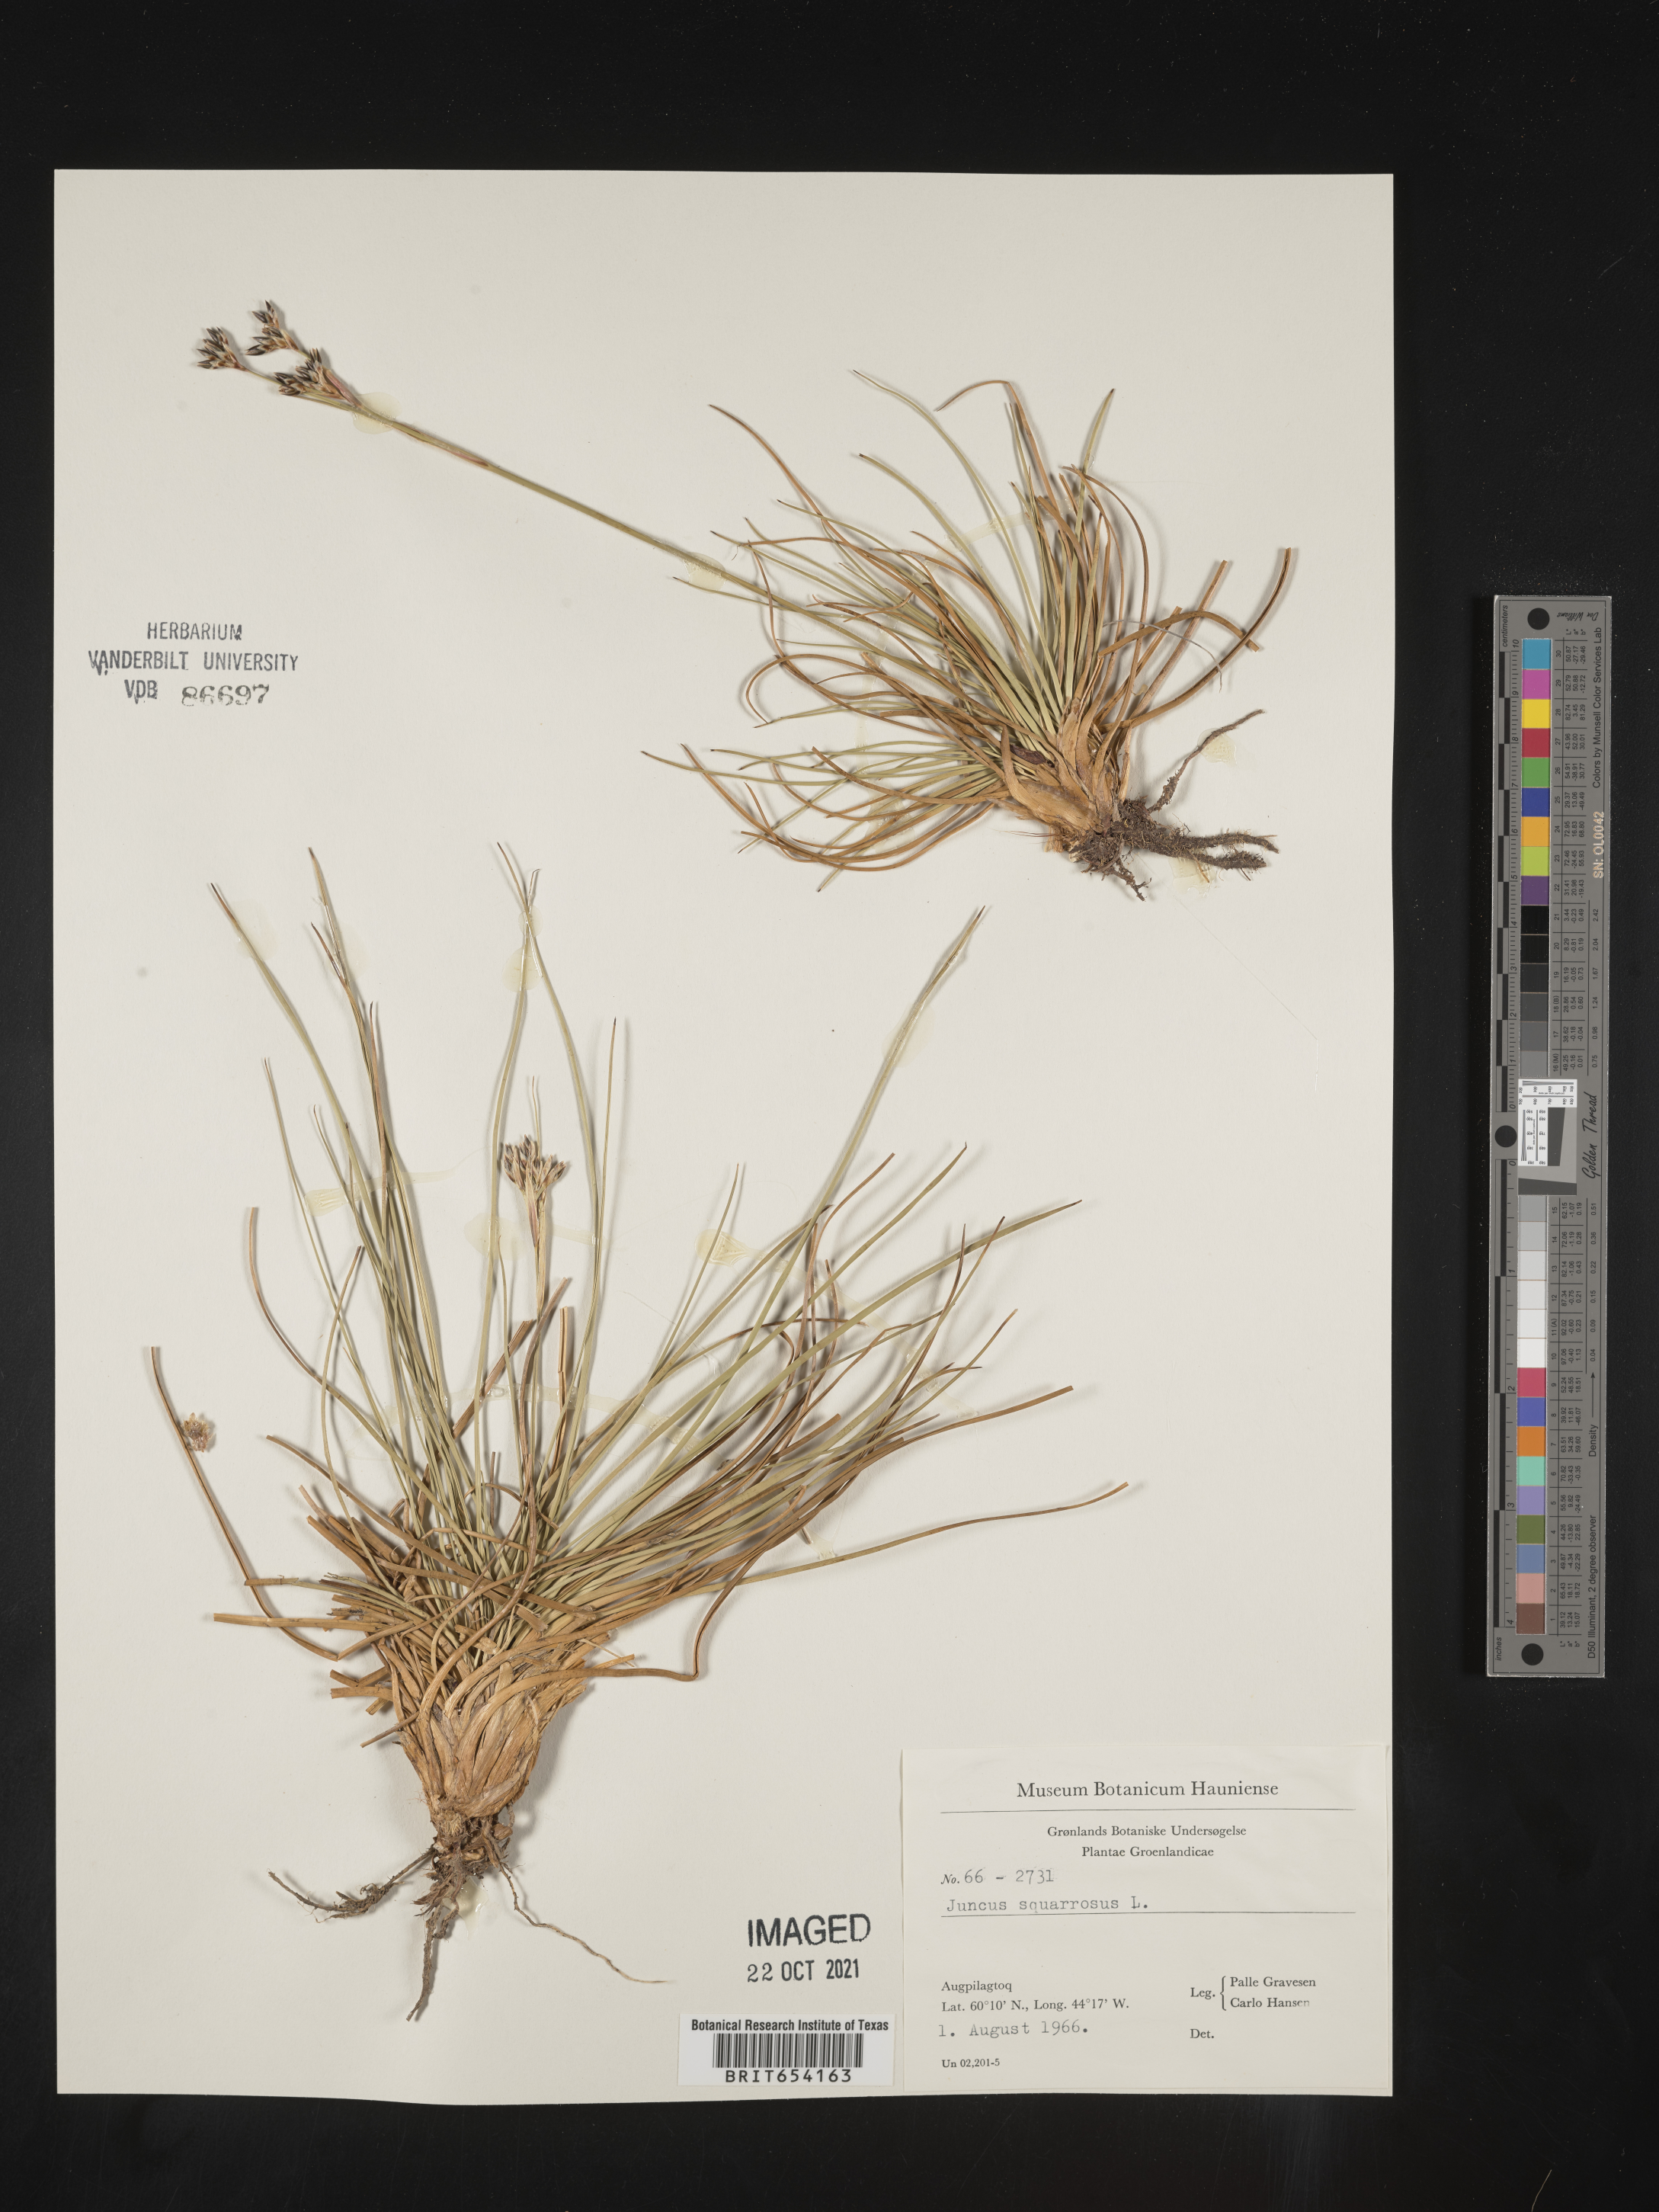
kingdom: Plantae
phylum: Tracheophyta
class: Liliopsida
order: Poales
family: Juncaceae
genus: Juncus
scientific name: Juncus
